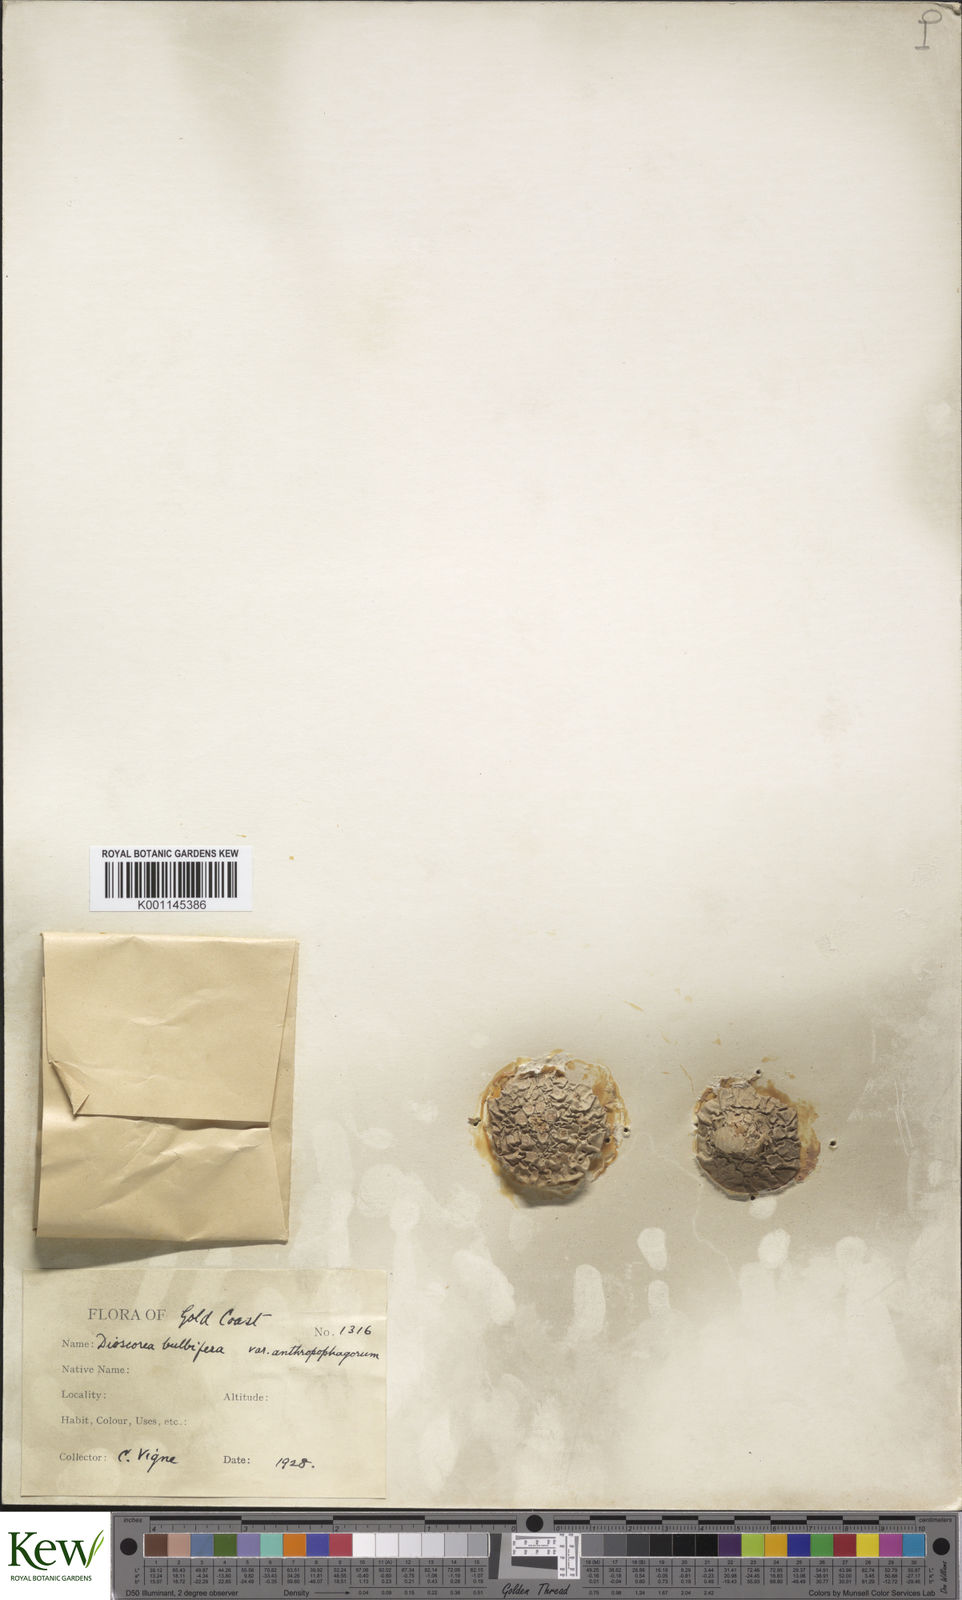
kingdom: Plantae
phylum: Tracheophyta
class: Liliopsida
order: Dioscoreales
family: Dioscoreaceae
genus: Dioscorea
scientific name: Dioscorea bulbifera
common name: Air yam
